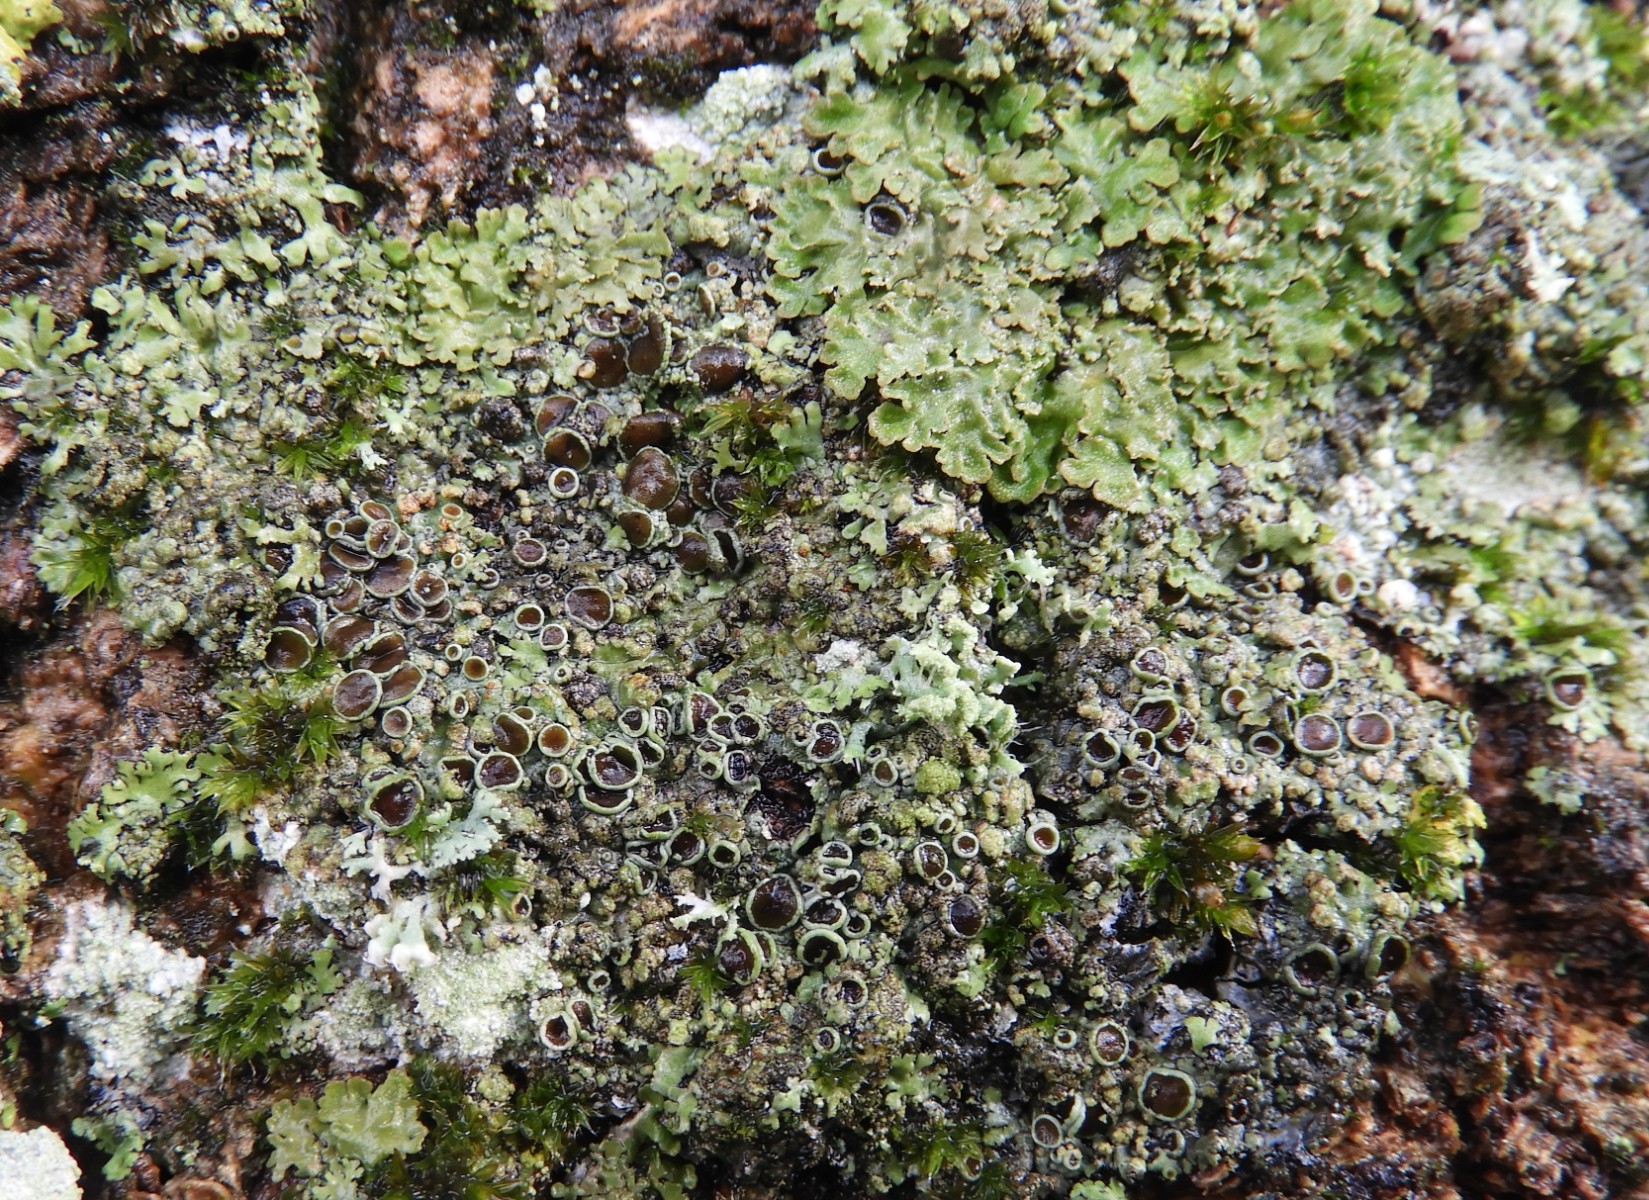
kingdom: Fungi
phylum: Ascomycota
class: Lecanoromycetes
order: Caliciales
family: Physciaceae
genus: Phaeophyscia
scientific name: Phaeophyscia orbicularis
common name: grågrøn rosetlav
